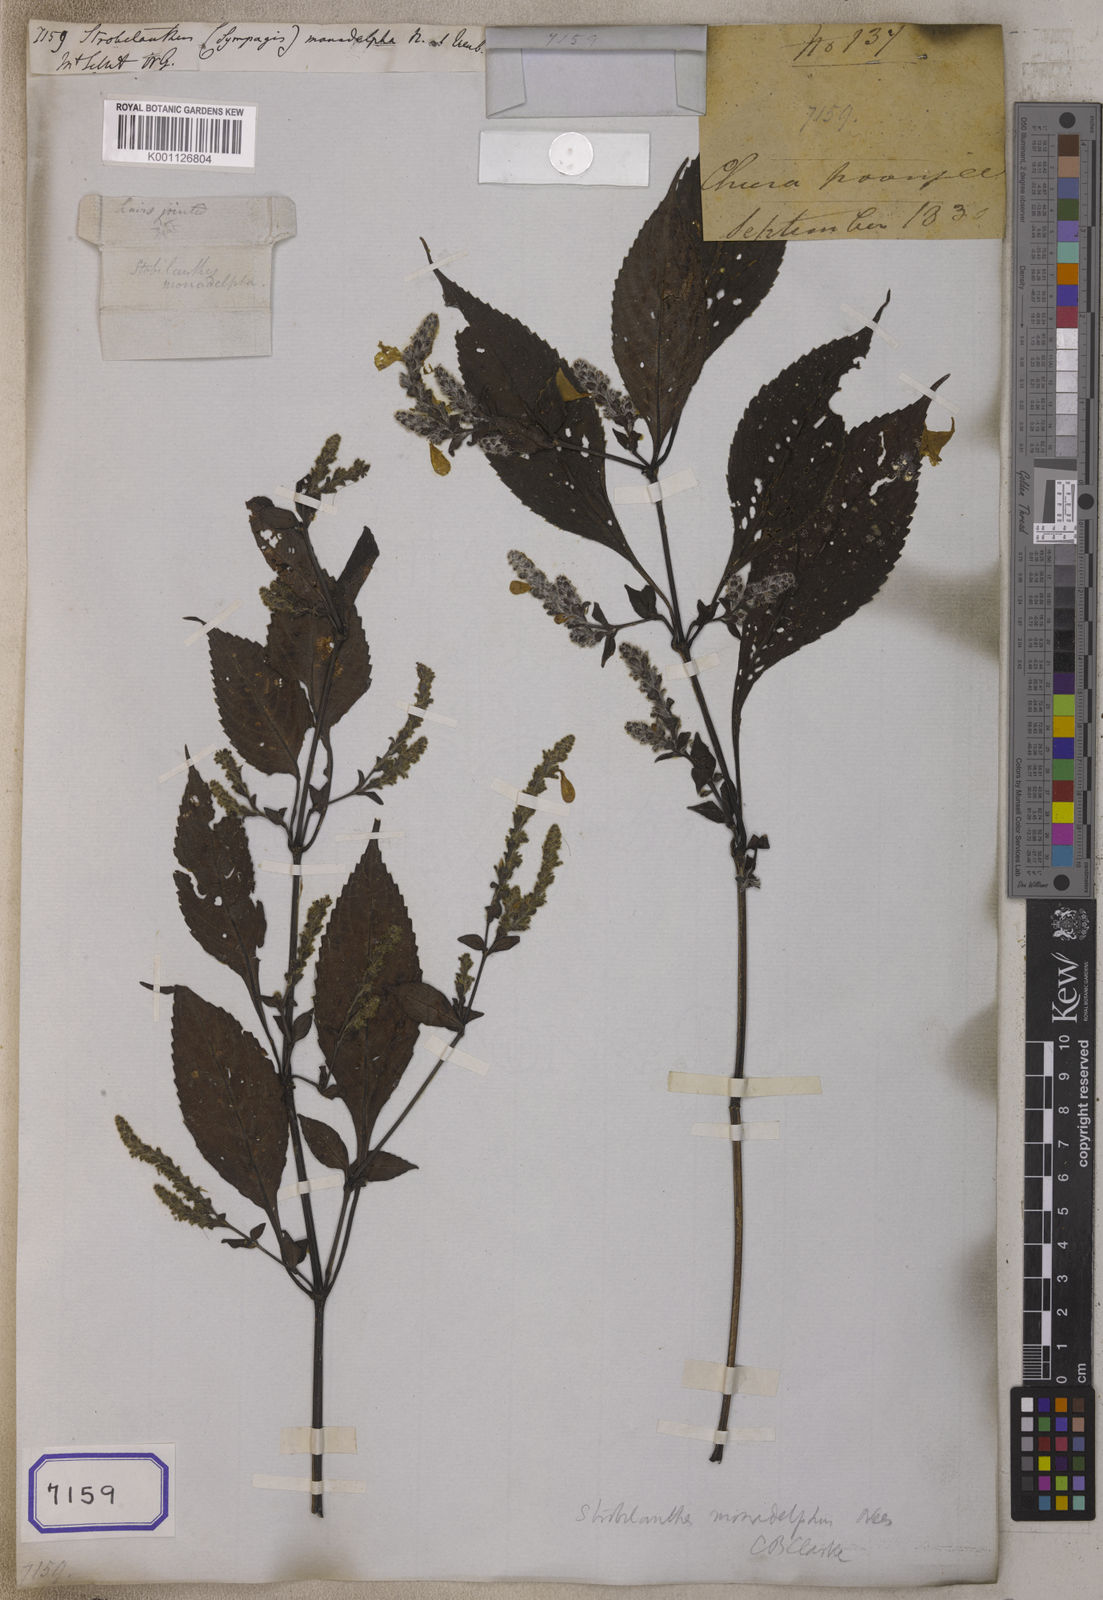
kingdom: Plantae
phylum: Tracheophyta
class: Magnoliopsida
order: Lamiales
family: Acanthaceae
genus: Strobilanthes
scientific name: Strobilanthes monadelpha
